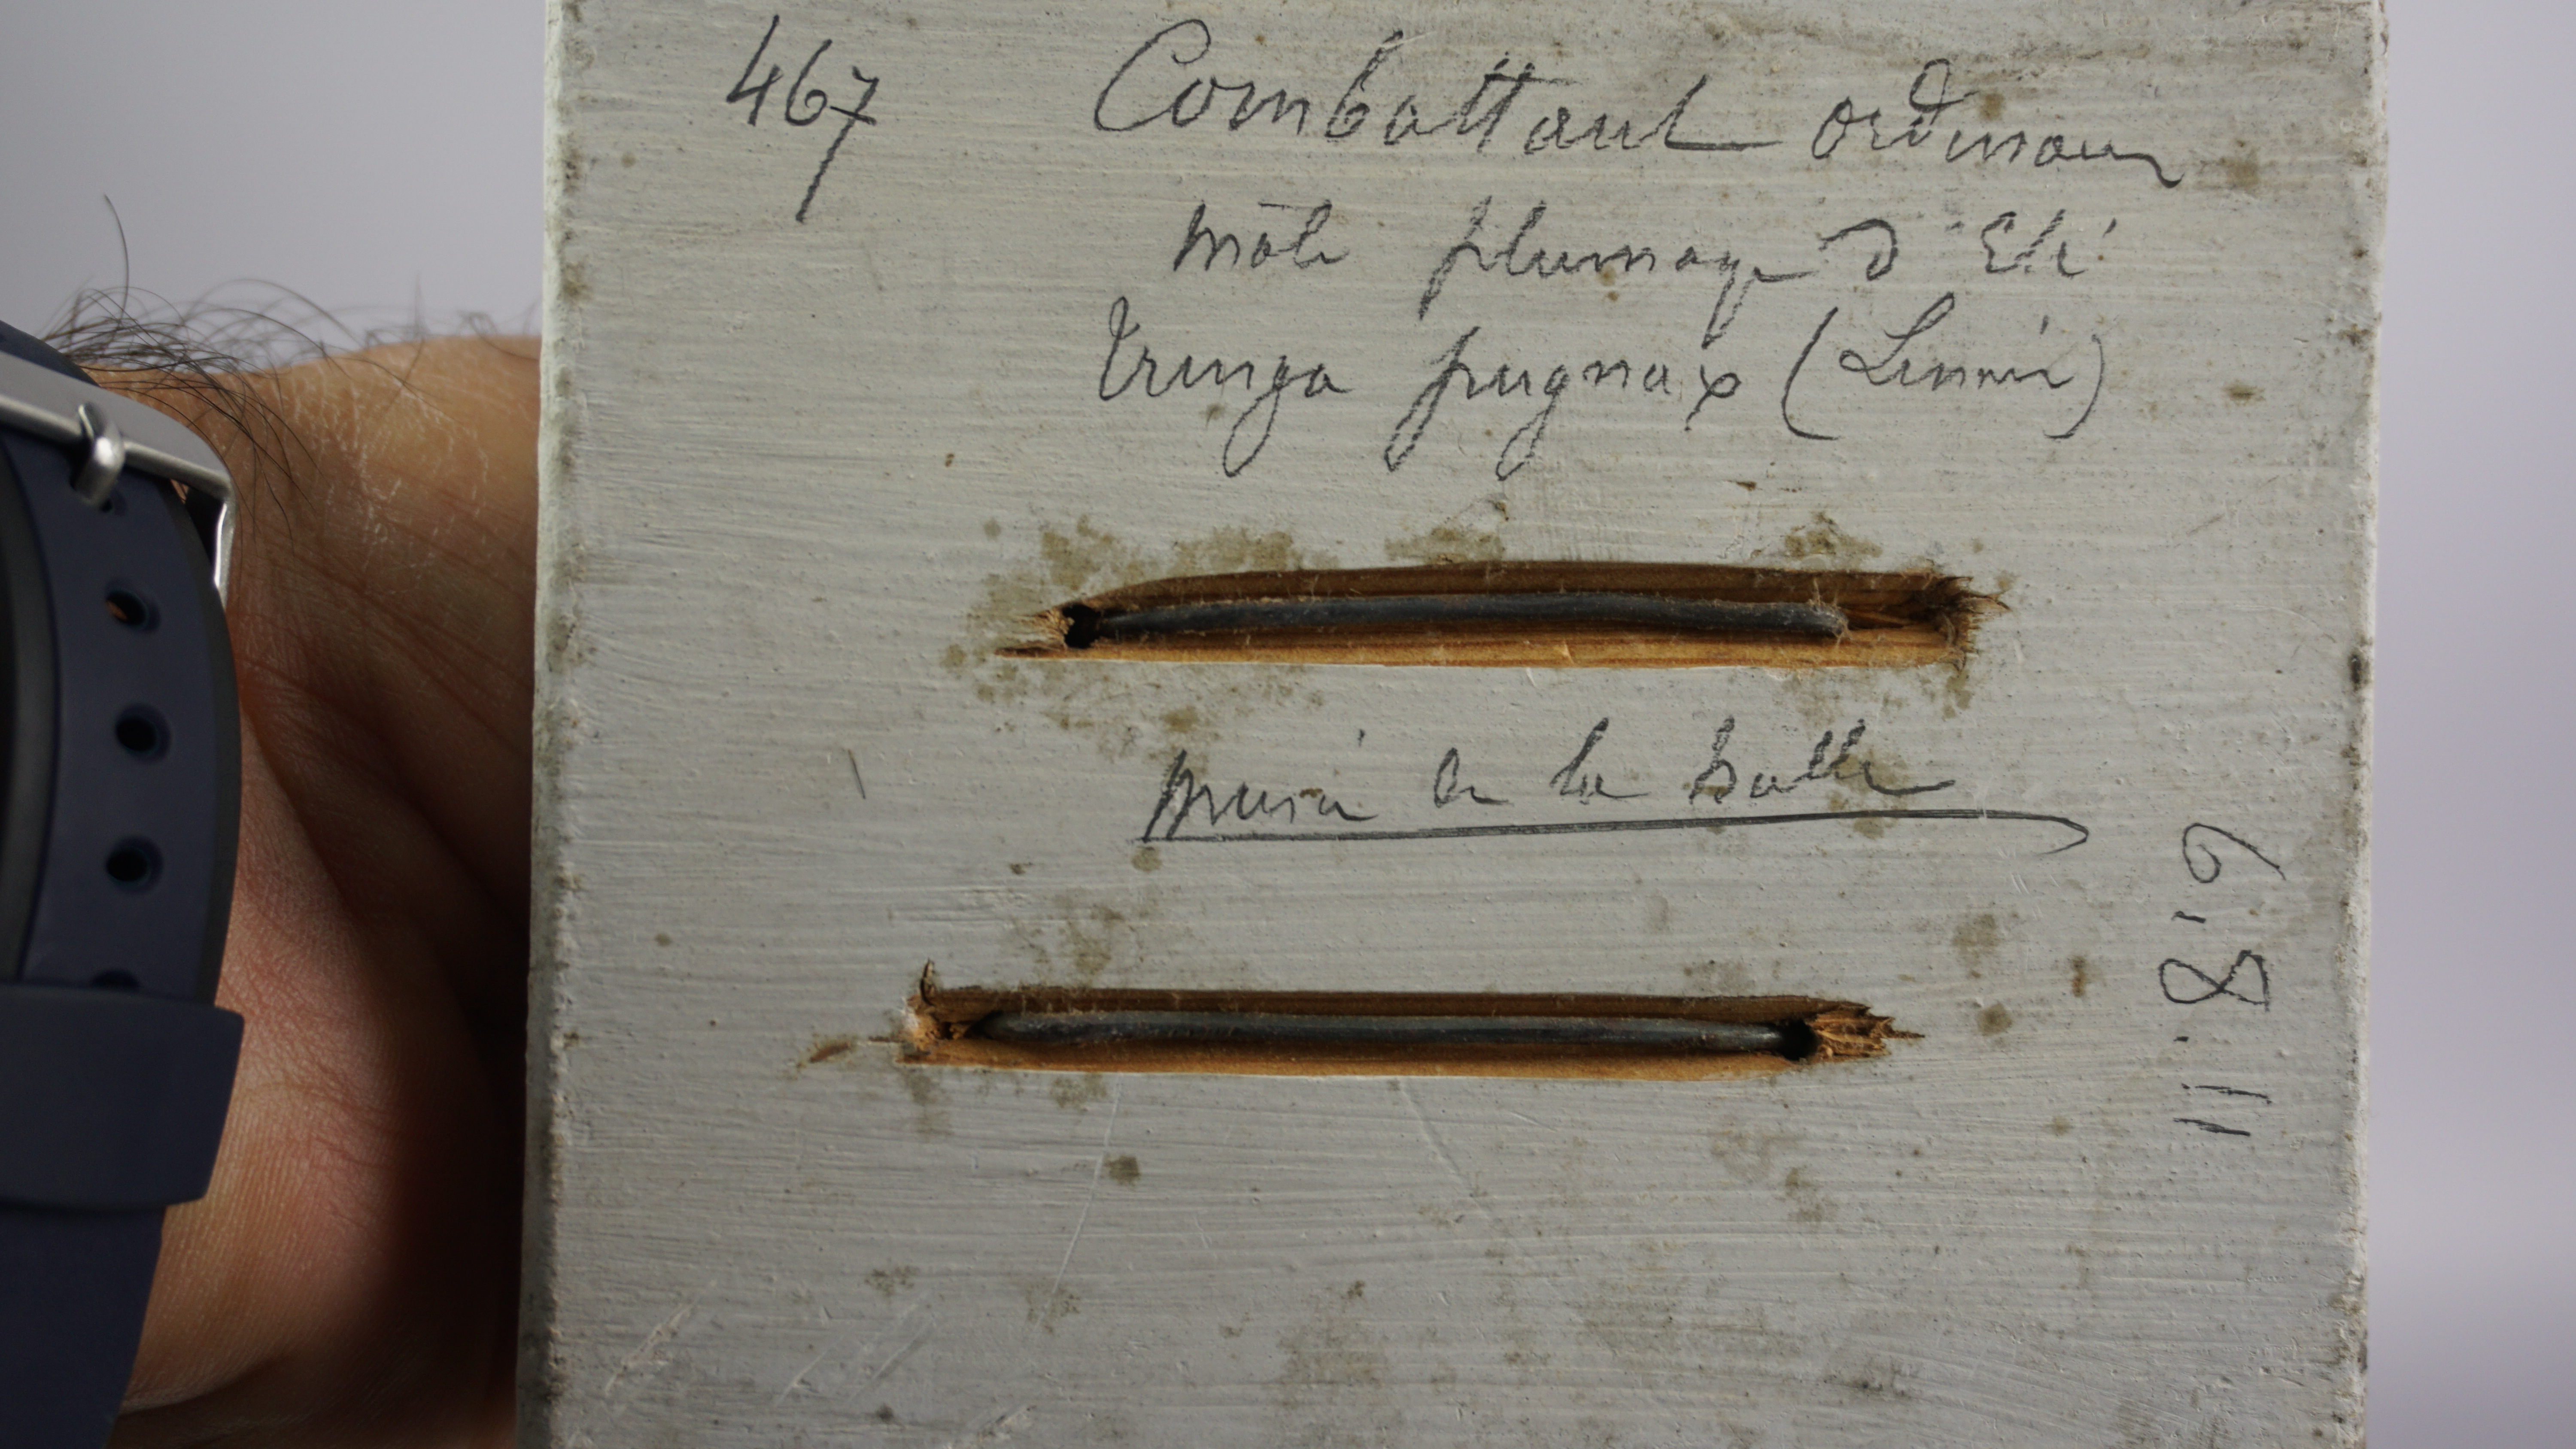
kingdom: Animalia
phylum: Chordata
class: Aves
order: Charadriiformes
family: Scolopacidae
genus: Calidris
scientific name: Calidris pugnax
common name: Ruff
